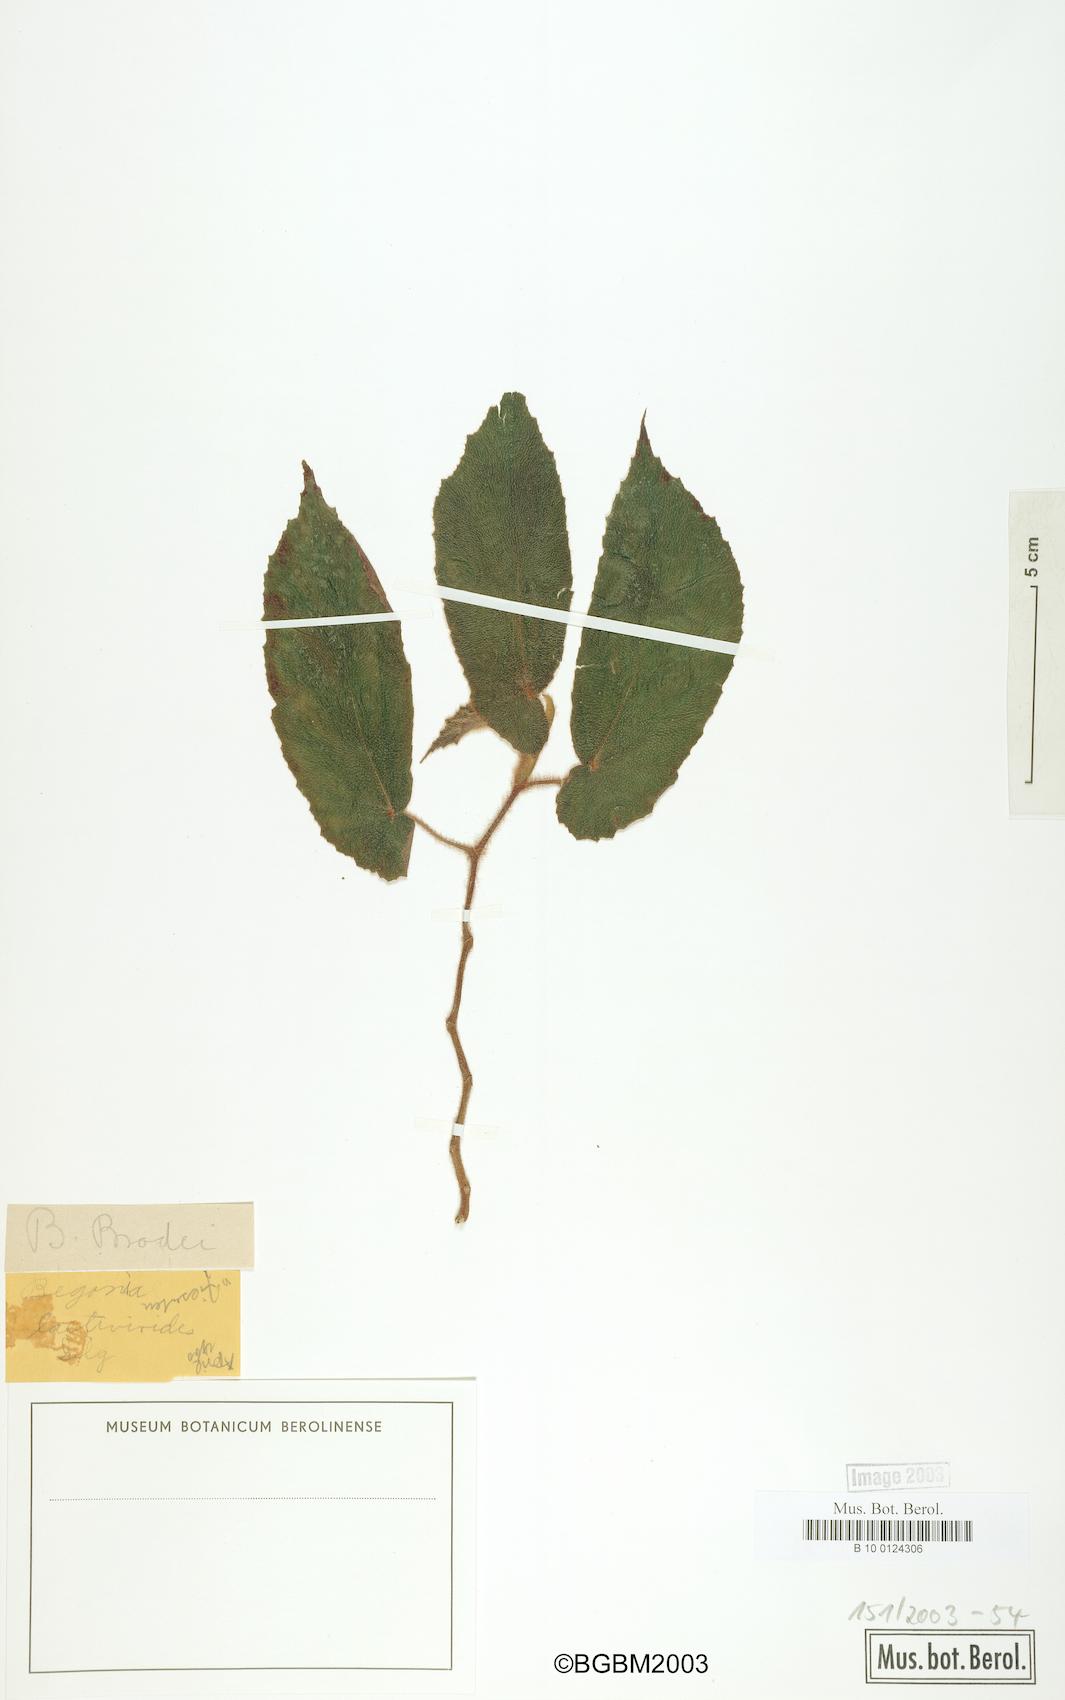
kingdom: Plantae
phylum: Tracheophyta
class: Magnoliopsida
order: Cucurbitales
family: Begoniaceae
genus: Begonia
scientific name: Begonia bradei
